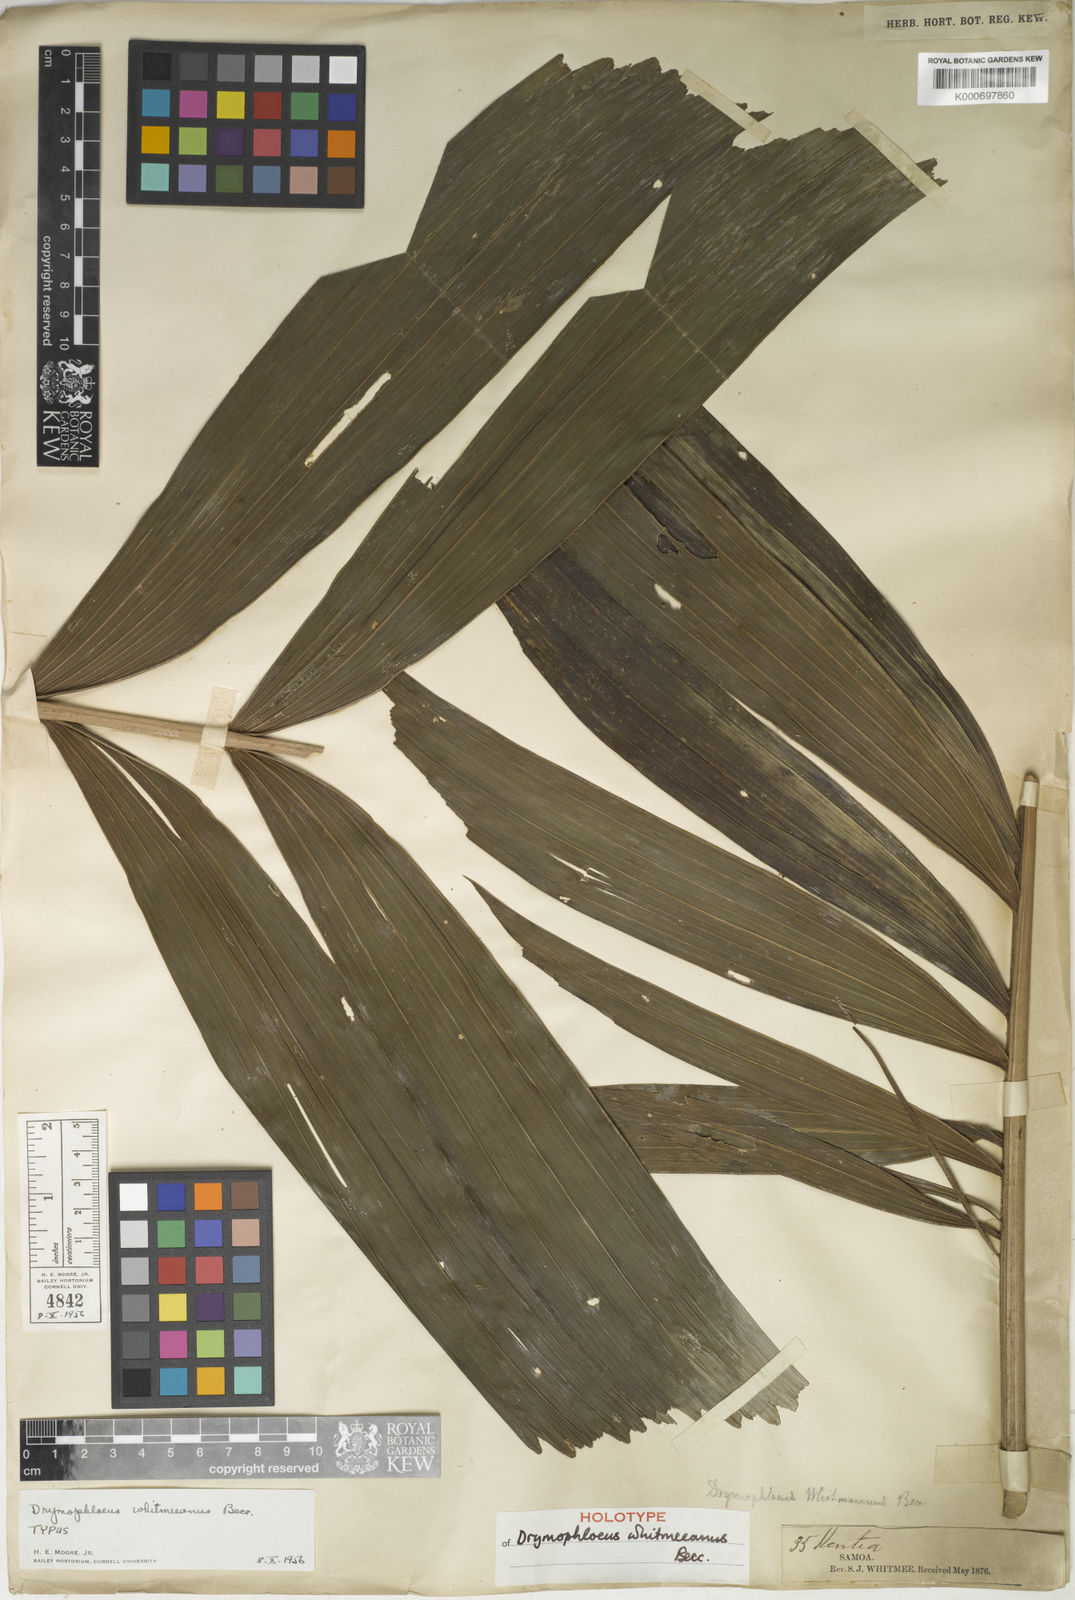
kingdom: Plantae
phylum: Tracheophyta
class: Liliopsida
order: Arecales
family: Arecaceae
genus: Drymophloeus
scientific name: Drymophloeus whitmeeanus
